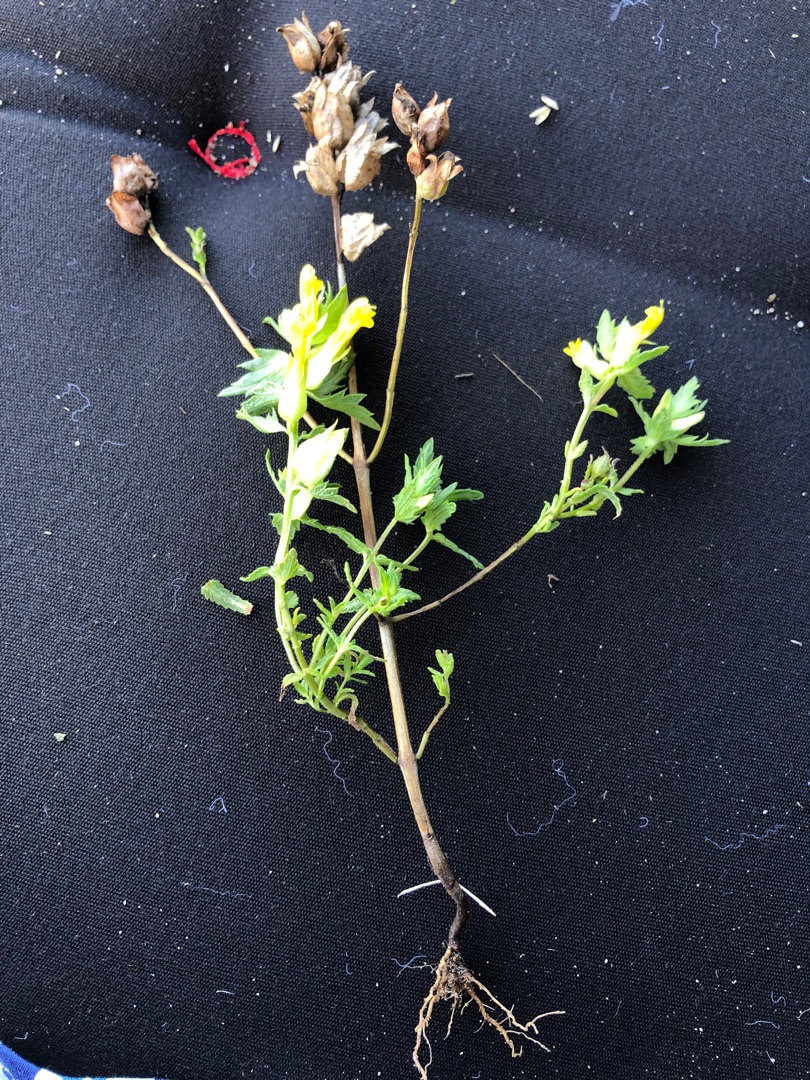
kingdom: Plantae
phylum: Tracheophyta
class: Magnoliopsida
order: Lamiales
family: Orobanchaceae
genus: Rhinanthus
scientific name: Rhinanthus
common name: Stor skjaller
